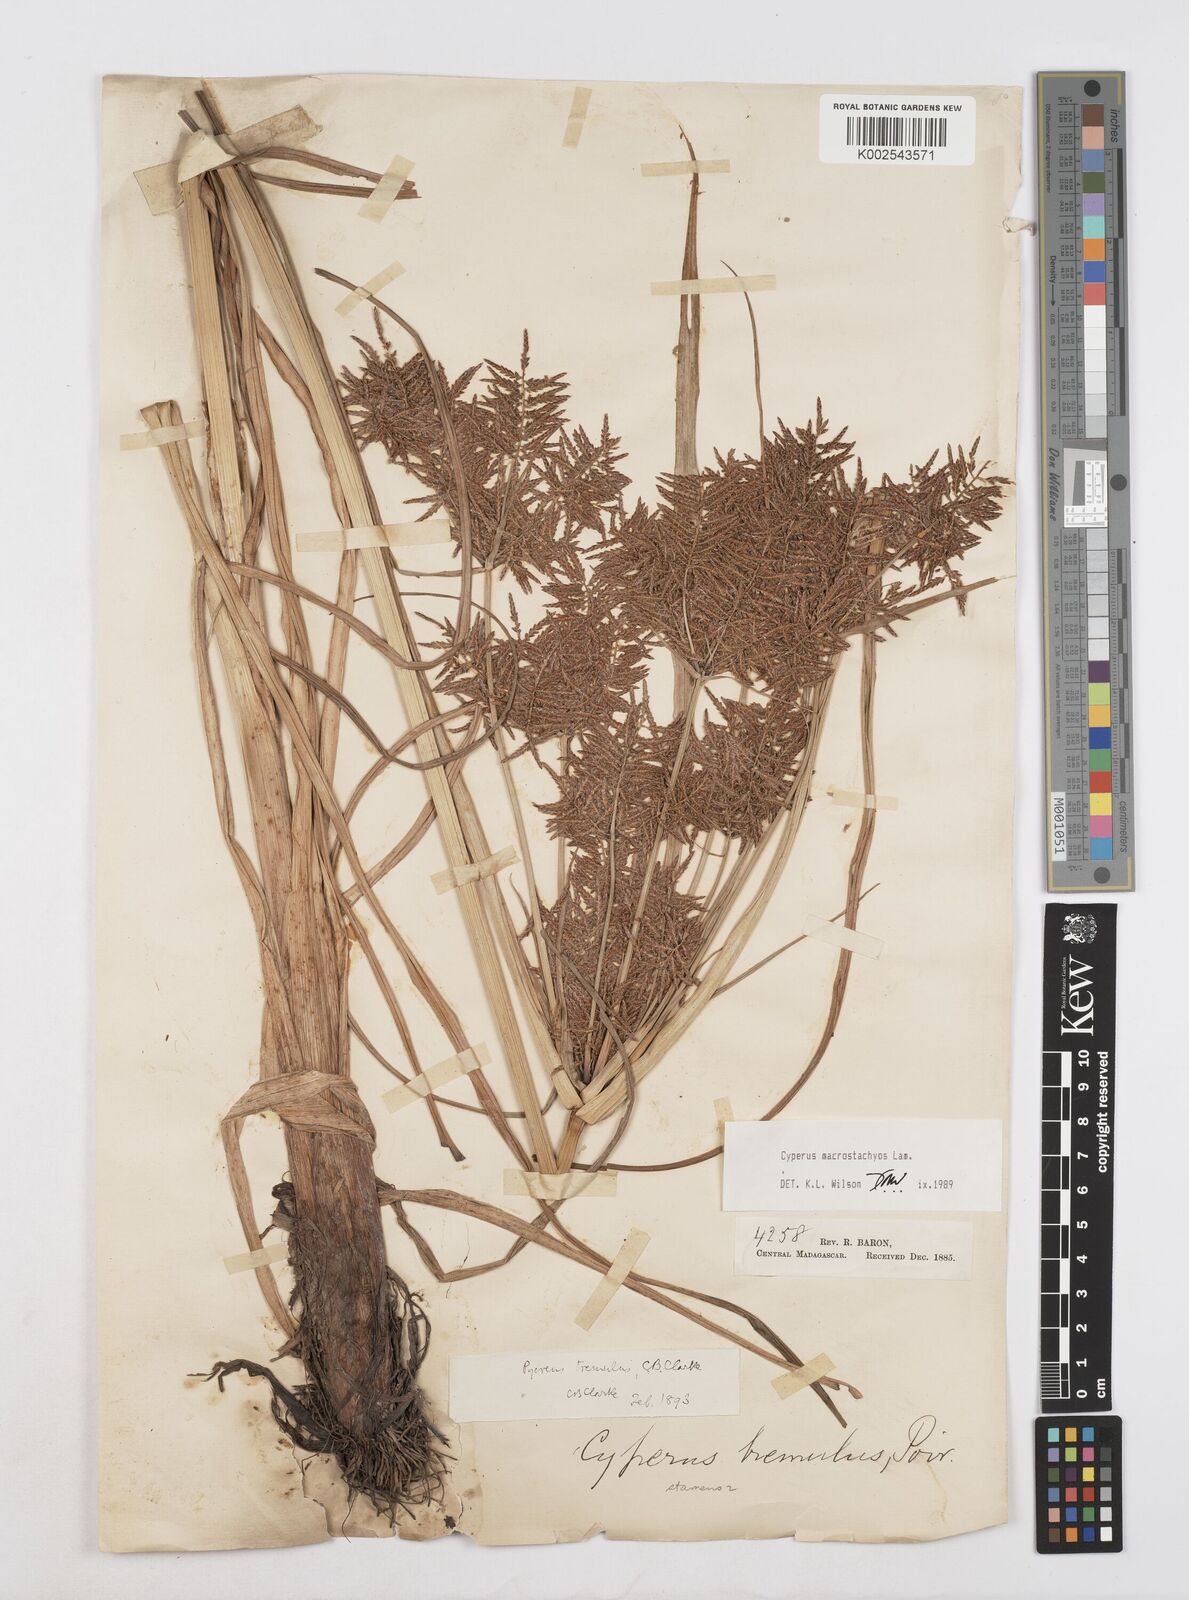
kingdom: Plantae
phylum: Tracheophyta
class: Liliopsida
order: Poales
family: Cyperaceae
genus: Cyperus
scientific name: Cyperus macrostachyos
